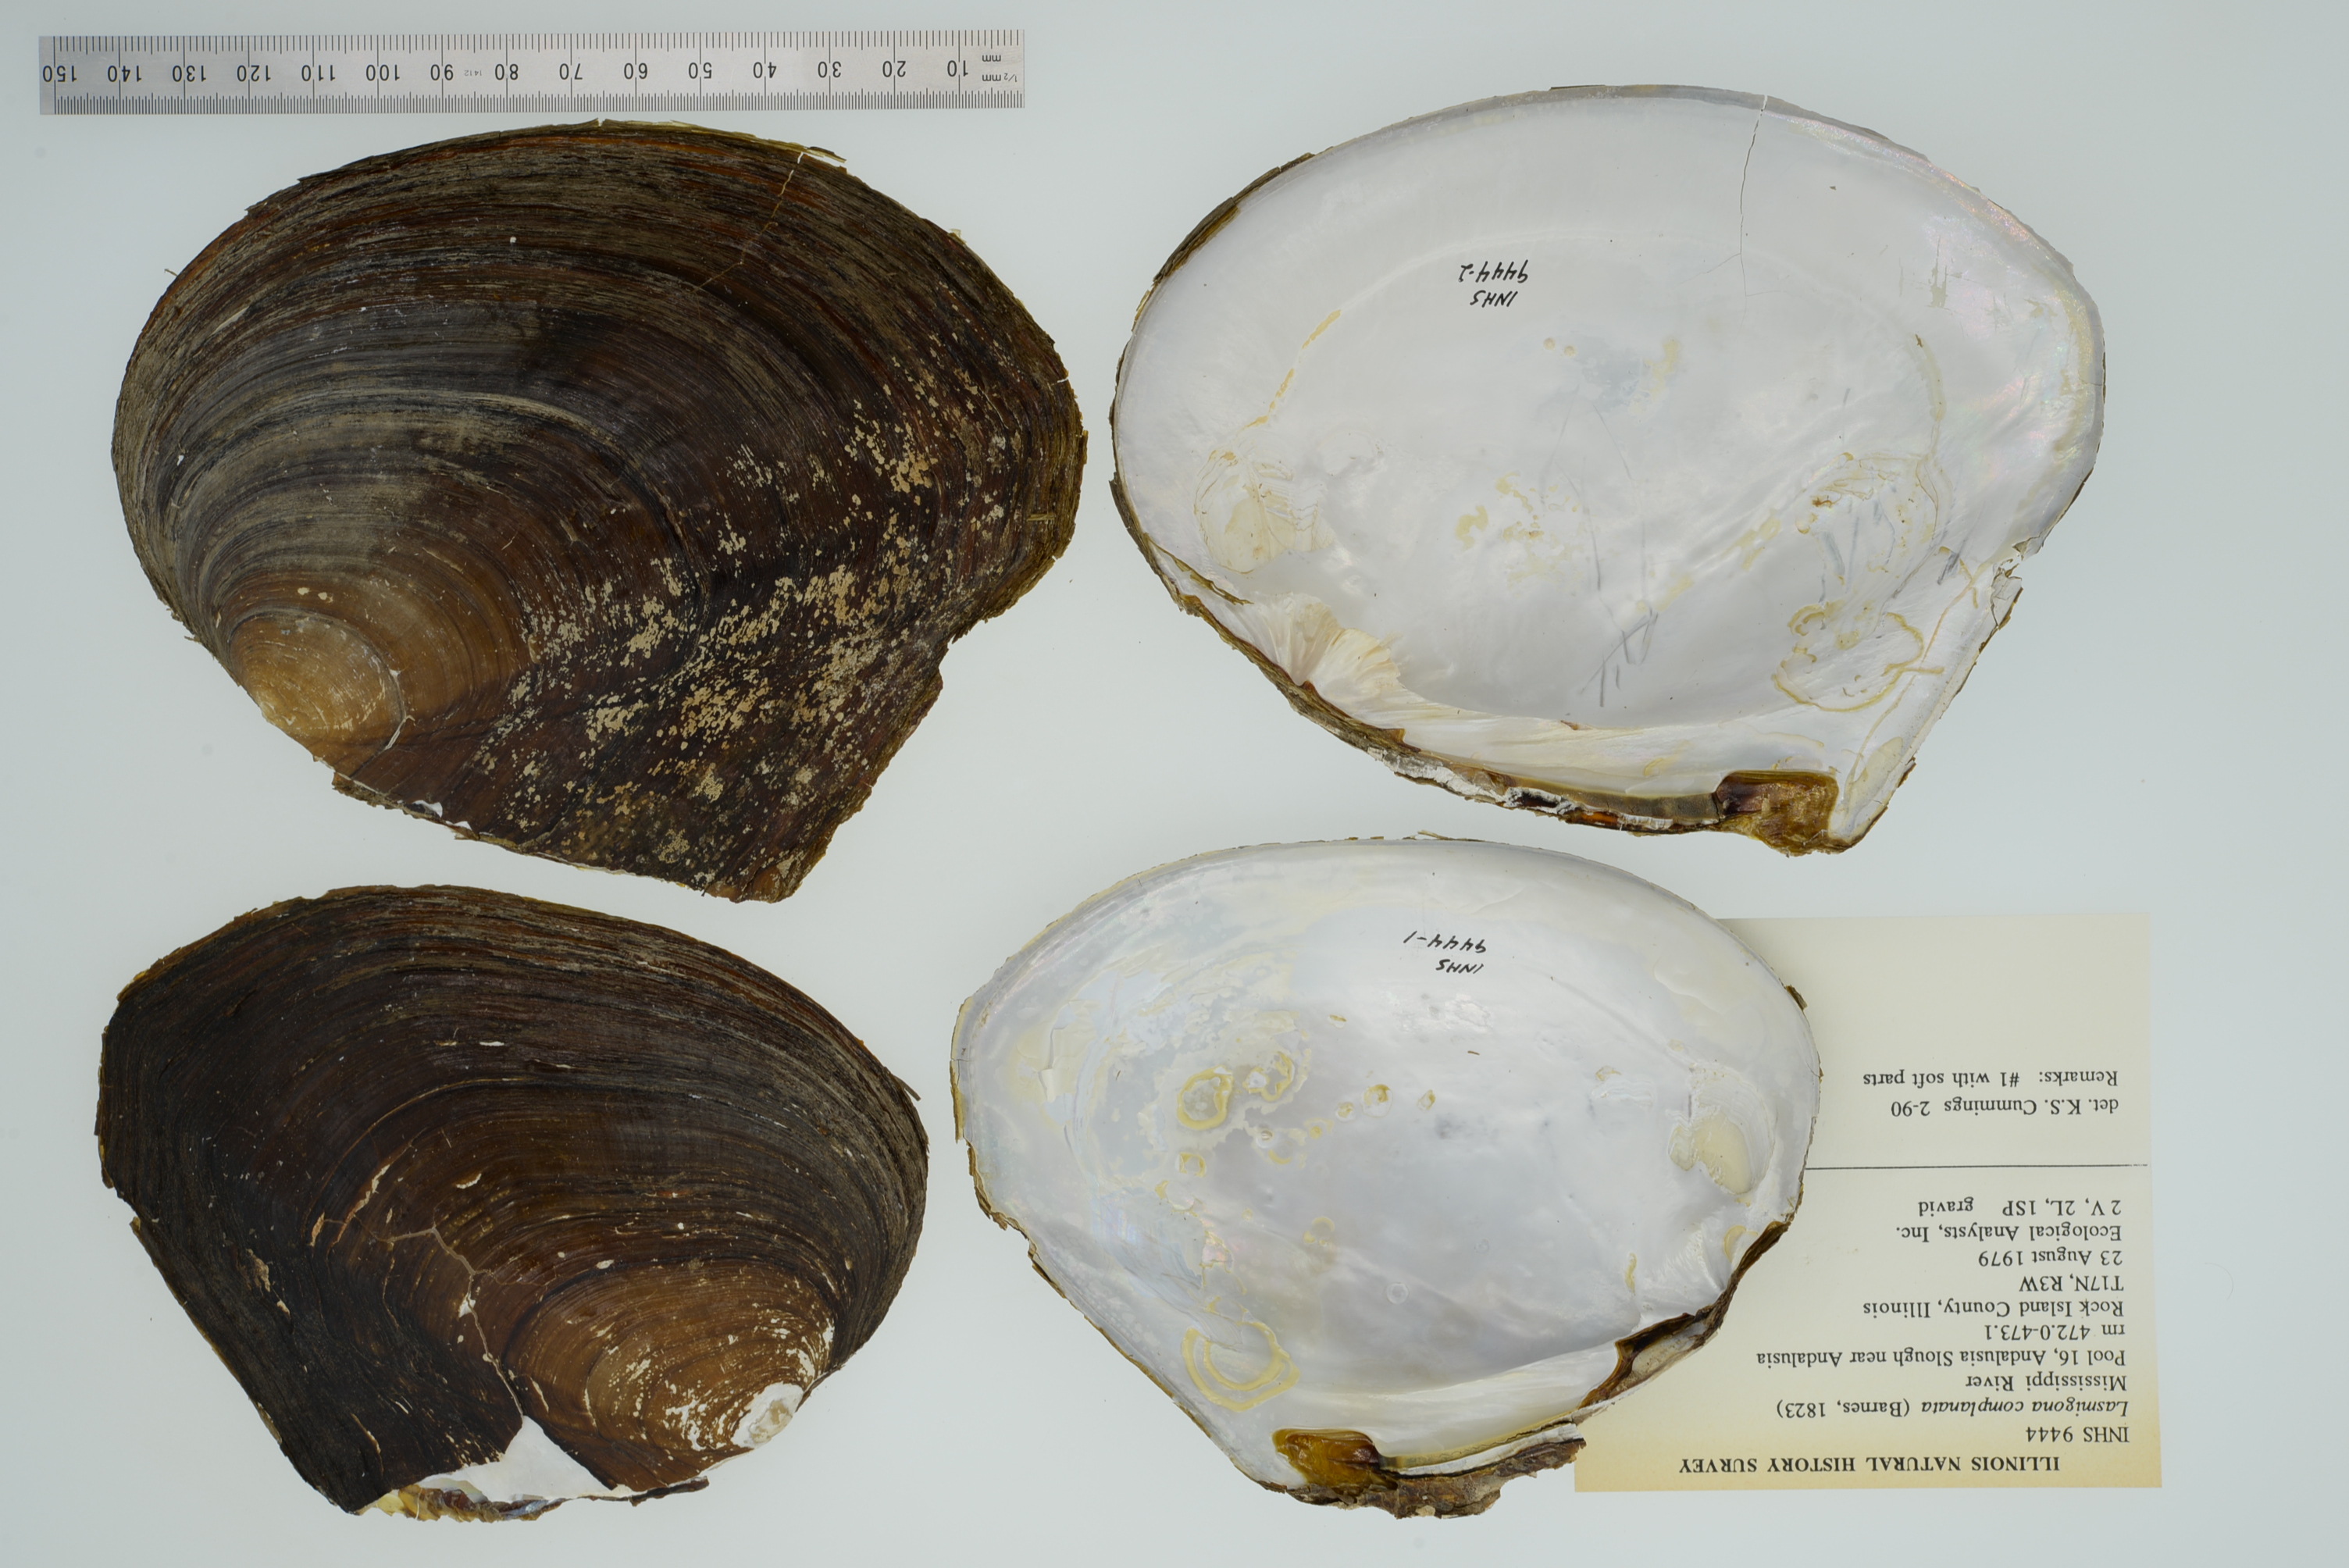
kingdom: Animalia
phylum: Mollusca
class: Bivalvia
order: Unionida
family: Unionidae
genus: Lasmigona
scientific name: Lasmigona complanata
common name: White heelsplitter
